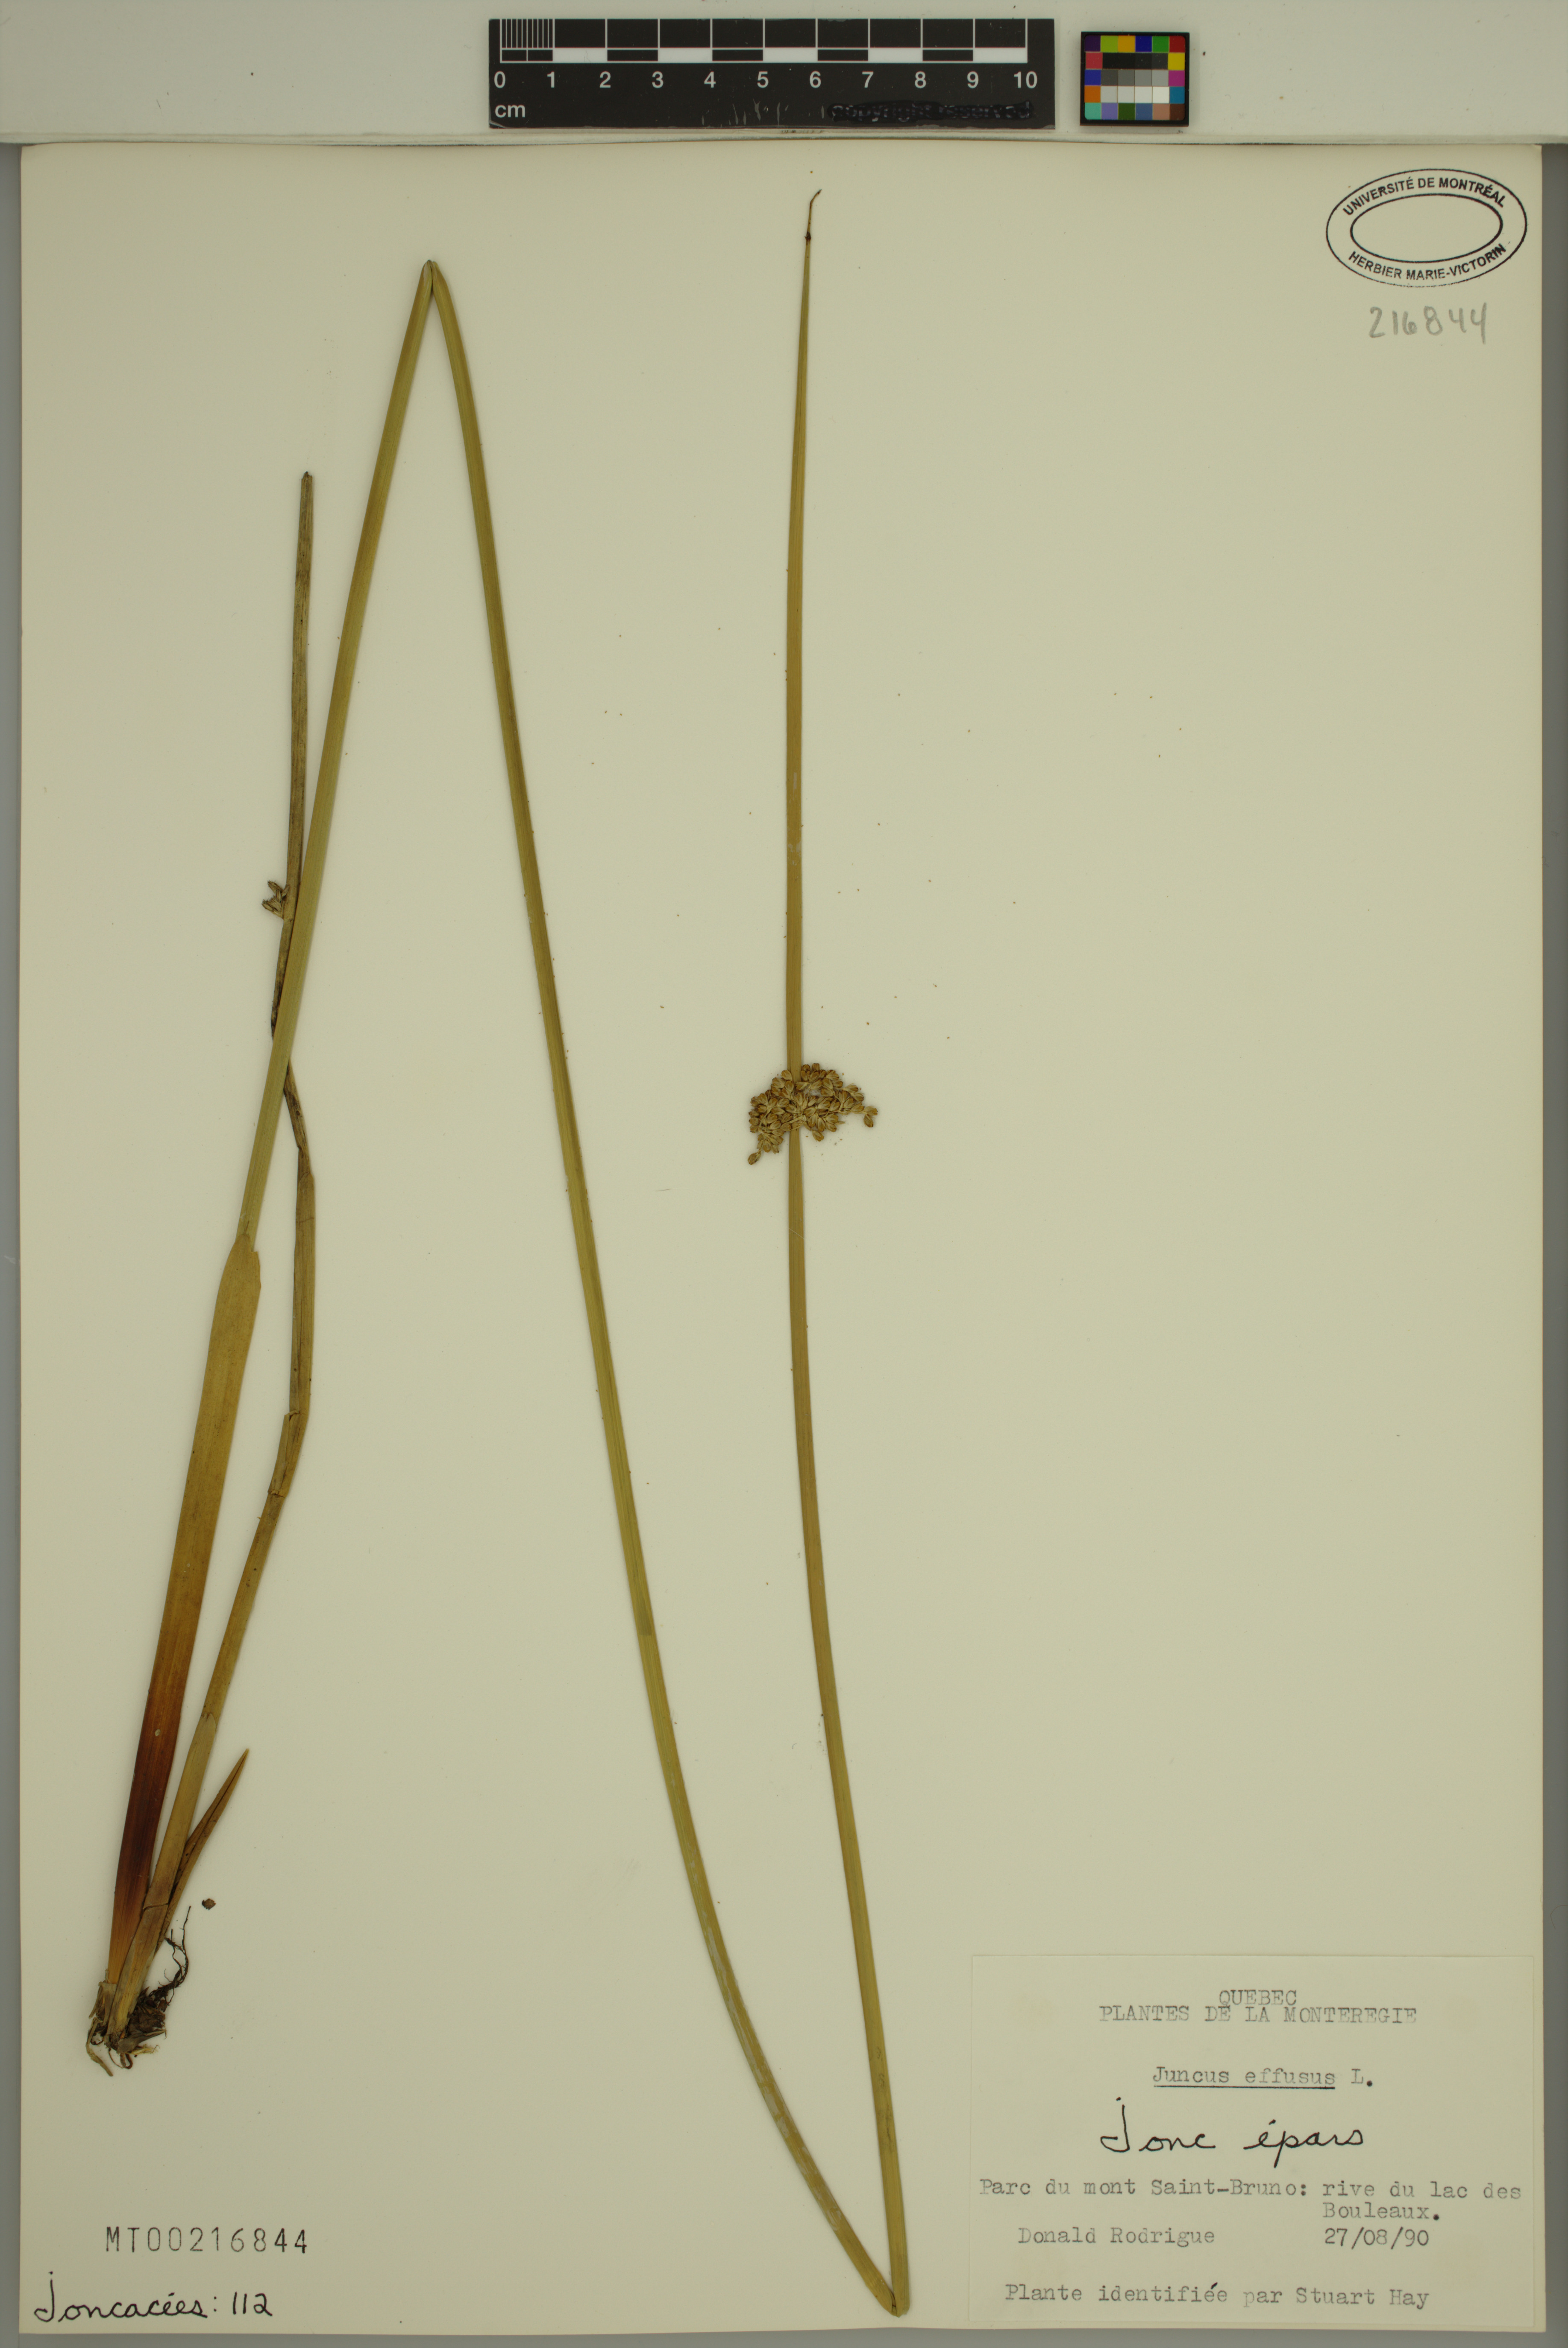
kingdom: Plantae
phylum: Tracheophyta
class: Liliopsida
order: Poales
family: Juncaceae
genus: Juncus
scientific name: Juncus effusus
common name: Soft rush
